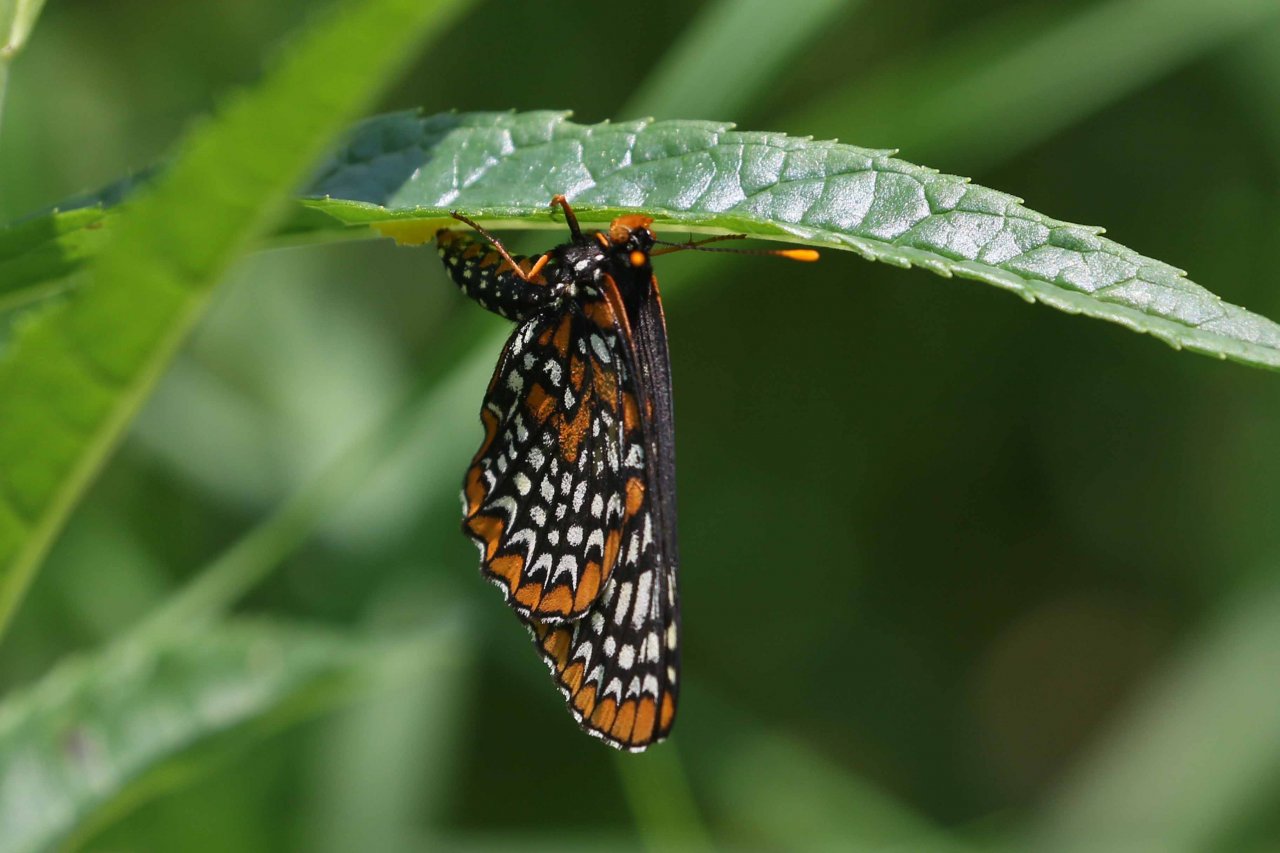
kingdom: Animalia
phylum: Arthropoda
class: Insecta
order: Lepidoptera
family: Nymphalidae
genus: Euphydryas
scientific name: Euphydryas phaeton
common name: Baltimore Checkerspot
